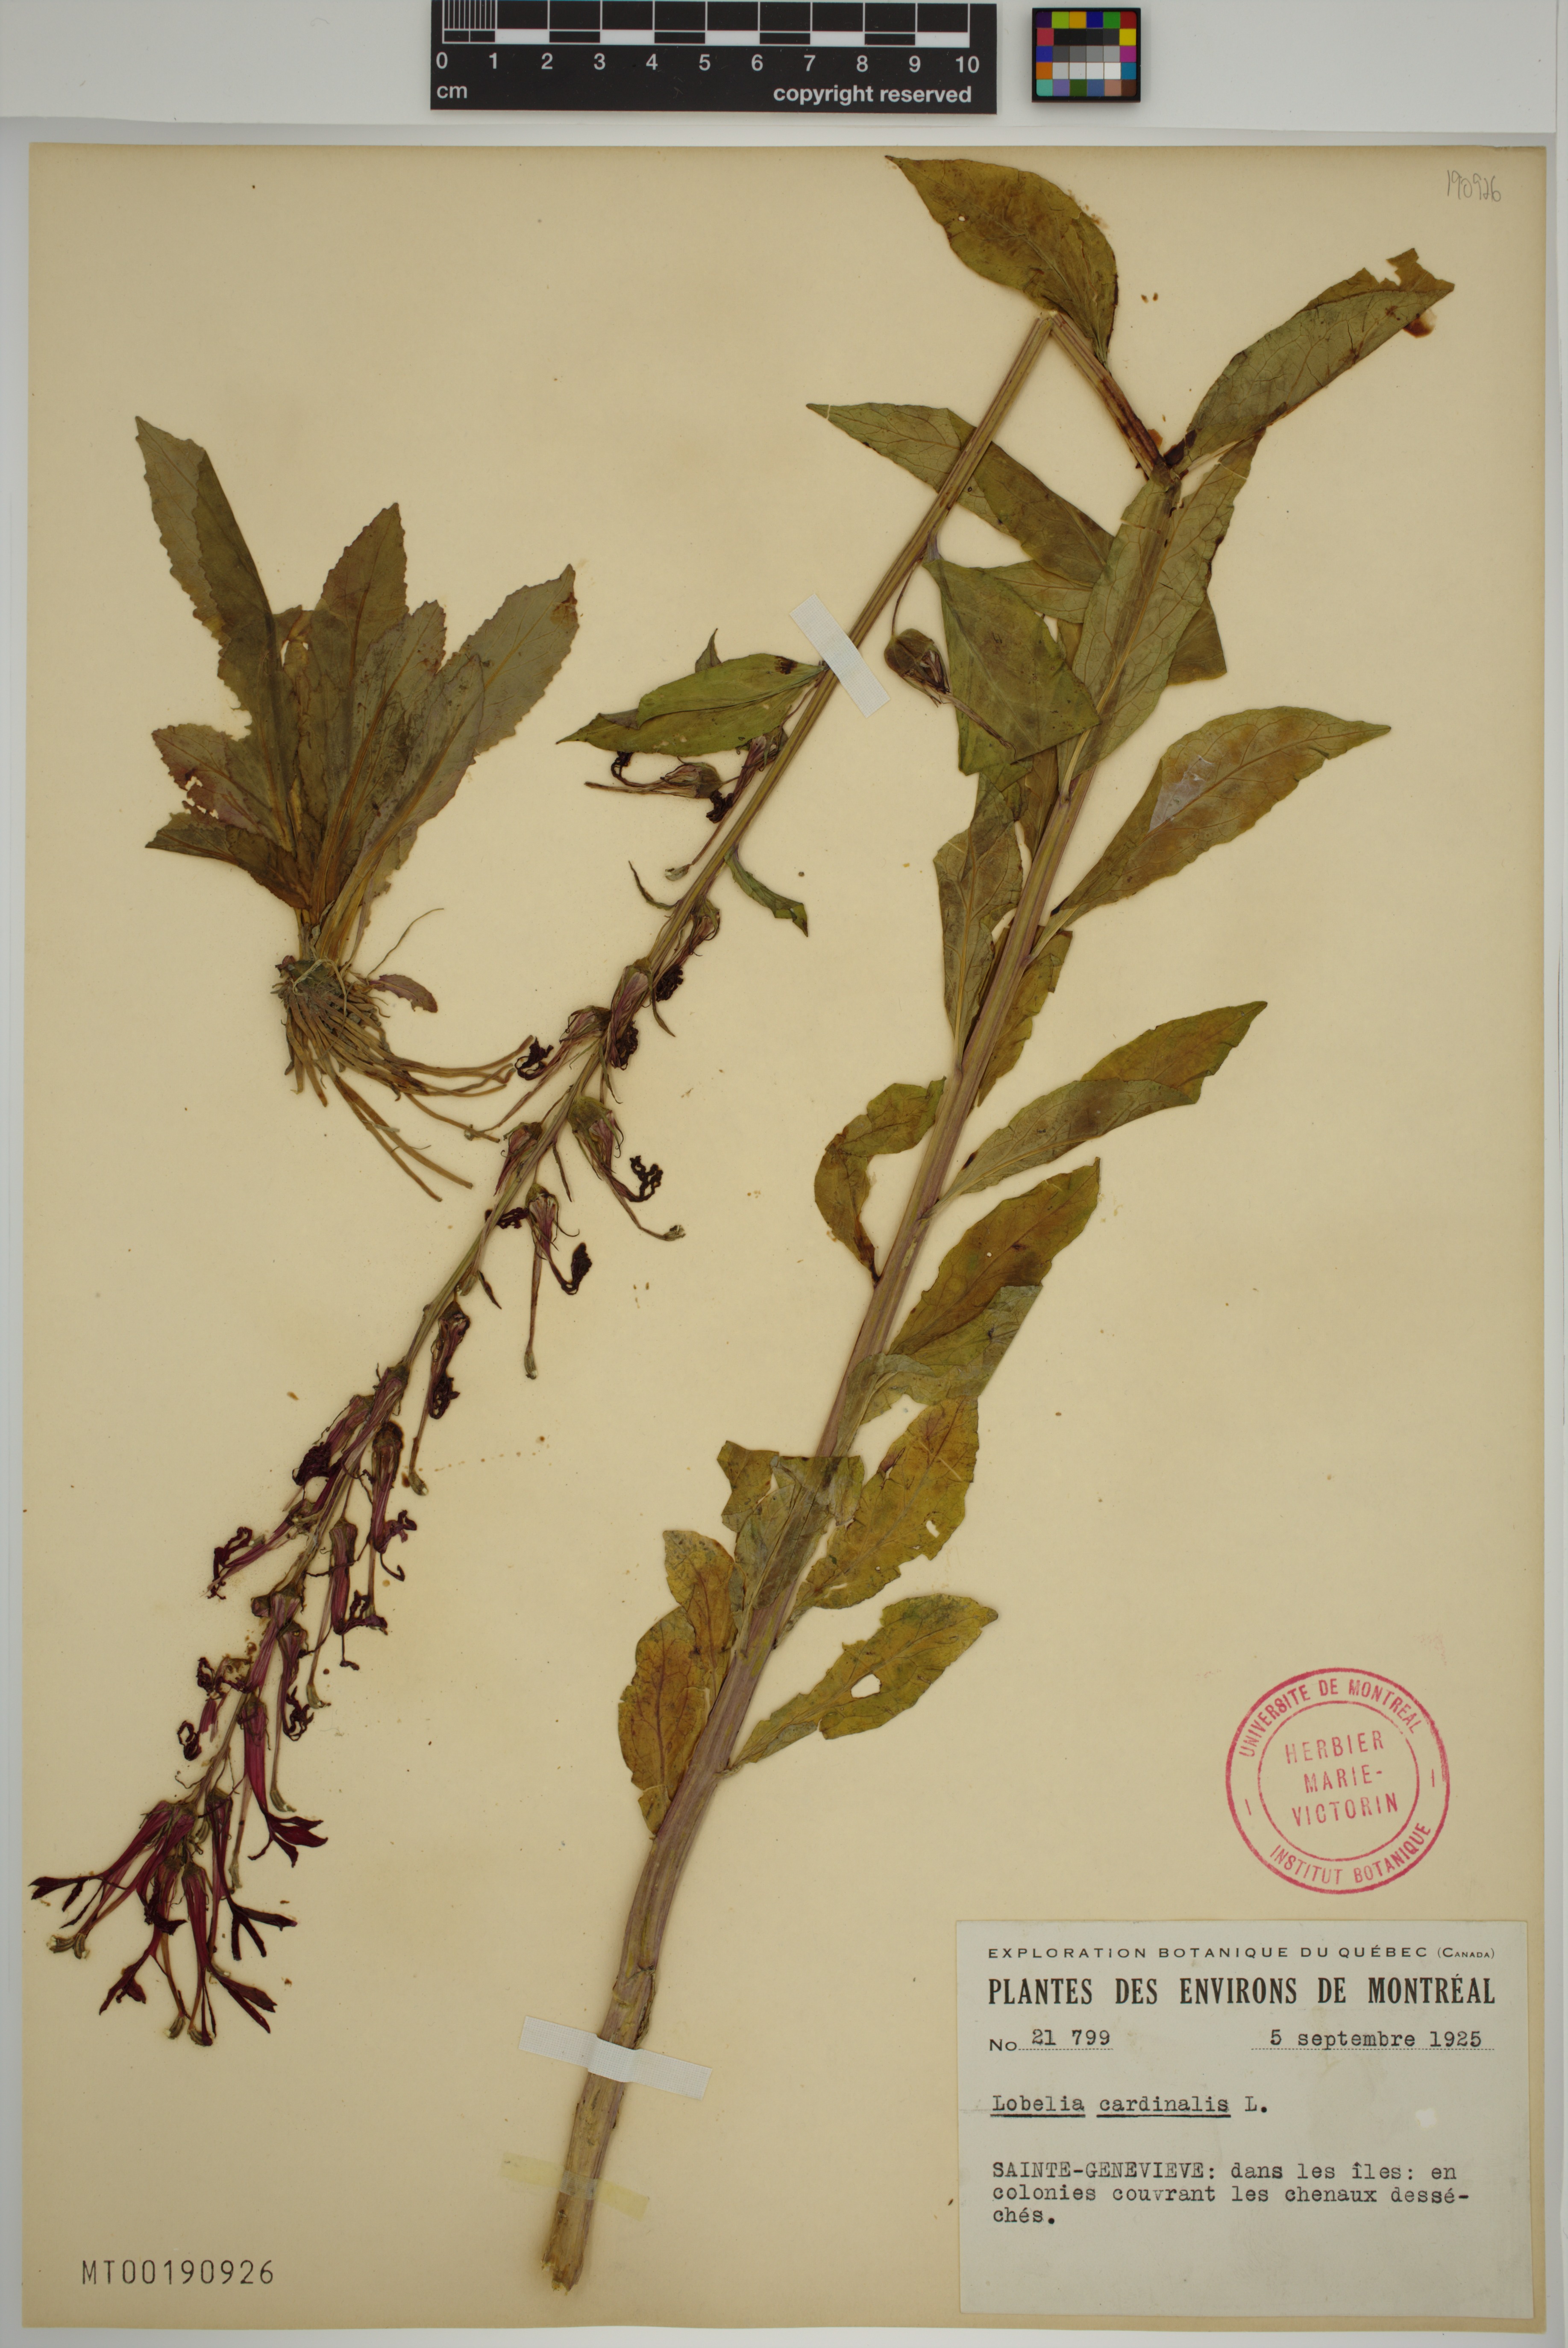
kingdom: Plantae
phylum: Tracheophyta
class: Magnoliopsida
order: Asterales
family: Campanulaceae
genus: Lobelia
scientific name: Lobelia cardinalis
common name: Cardinal flower
